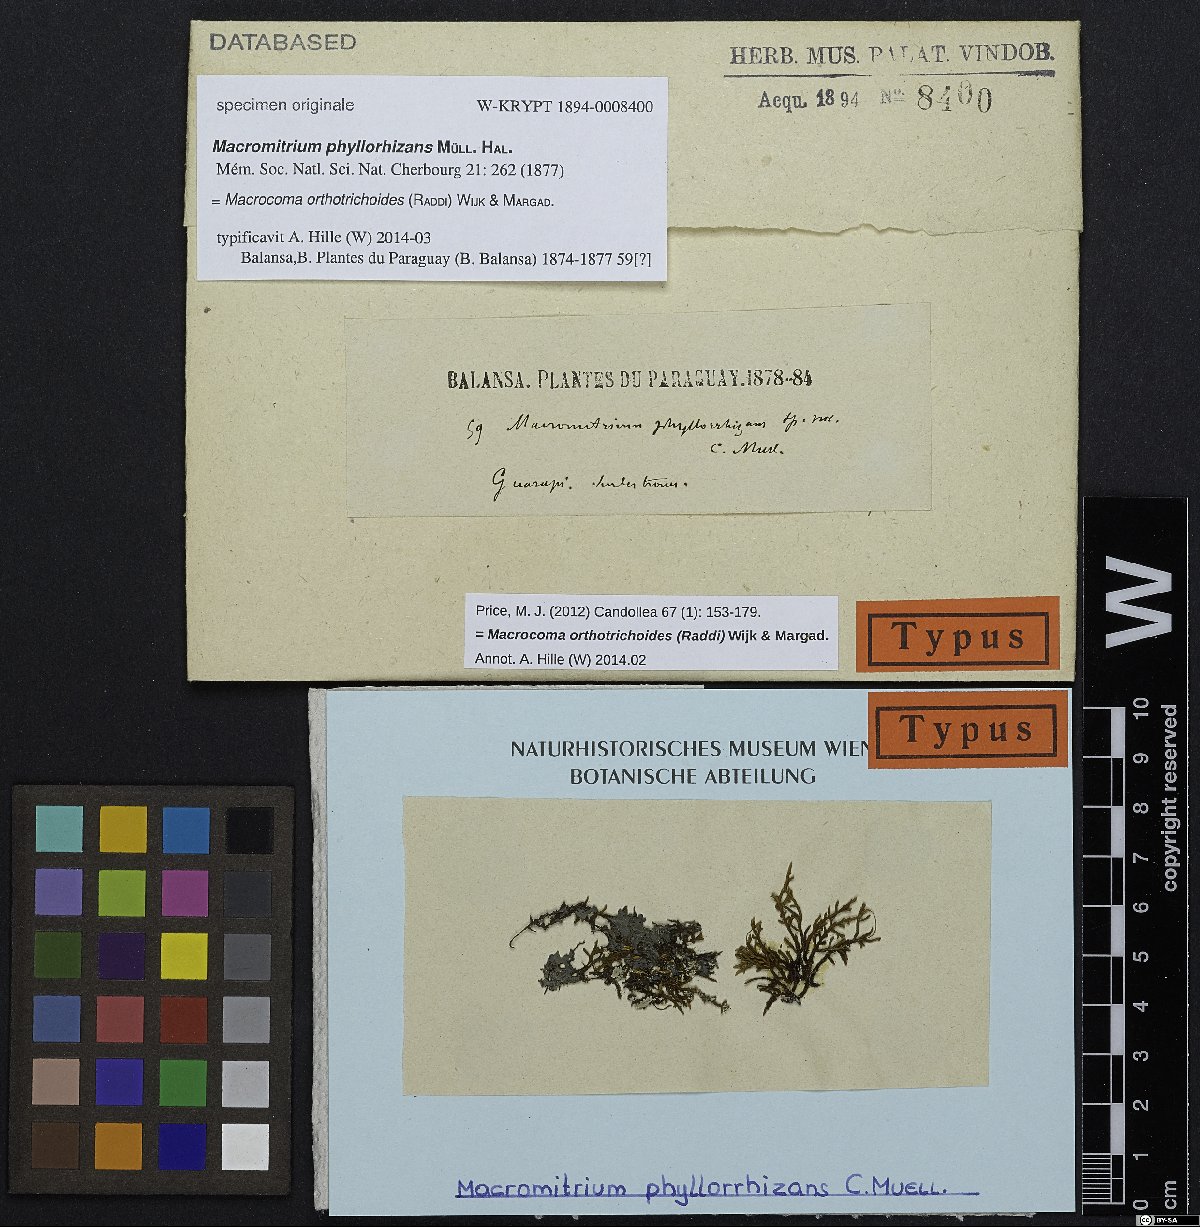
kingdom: Plantae
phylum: Bryophyta
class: Bryopsida
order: Orthotrichales
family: Orthotrichaceae
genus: Macrocoma
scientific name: Macrocoma orthotrichoides
